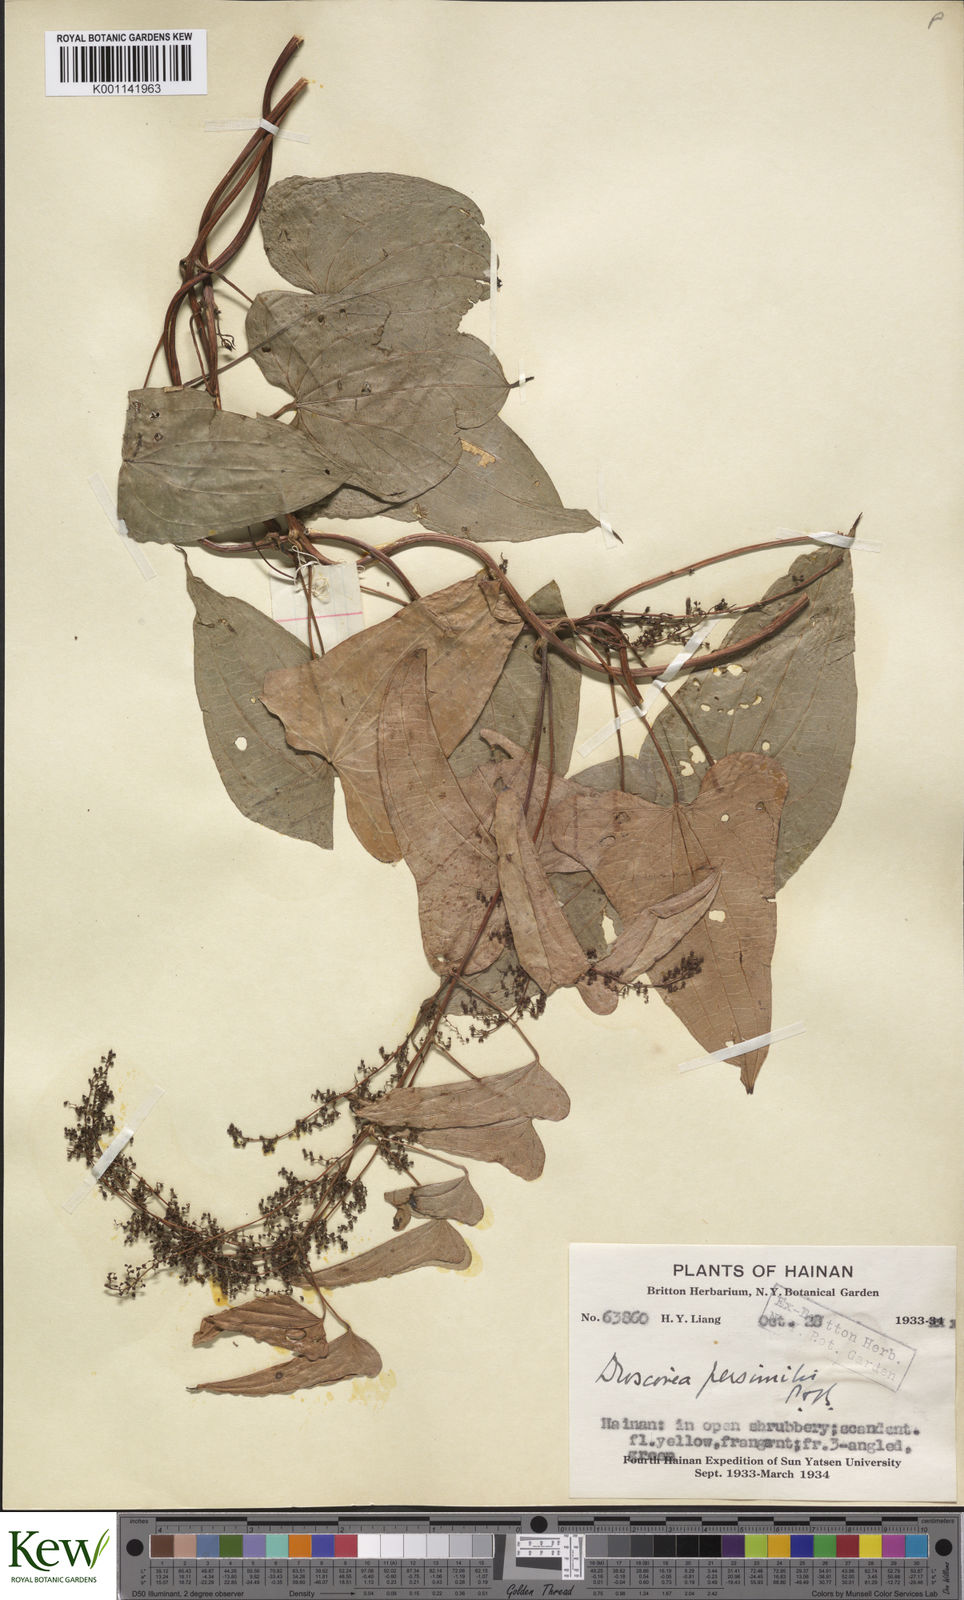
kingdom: Plantae
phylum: Tracheophyta
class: Liliopsida
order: Dioscoreales
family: Dioscoreaceae
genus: Dioscorea
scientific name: Dioscorea hamiltonii
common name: Mountain yam
